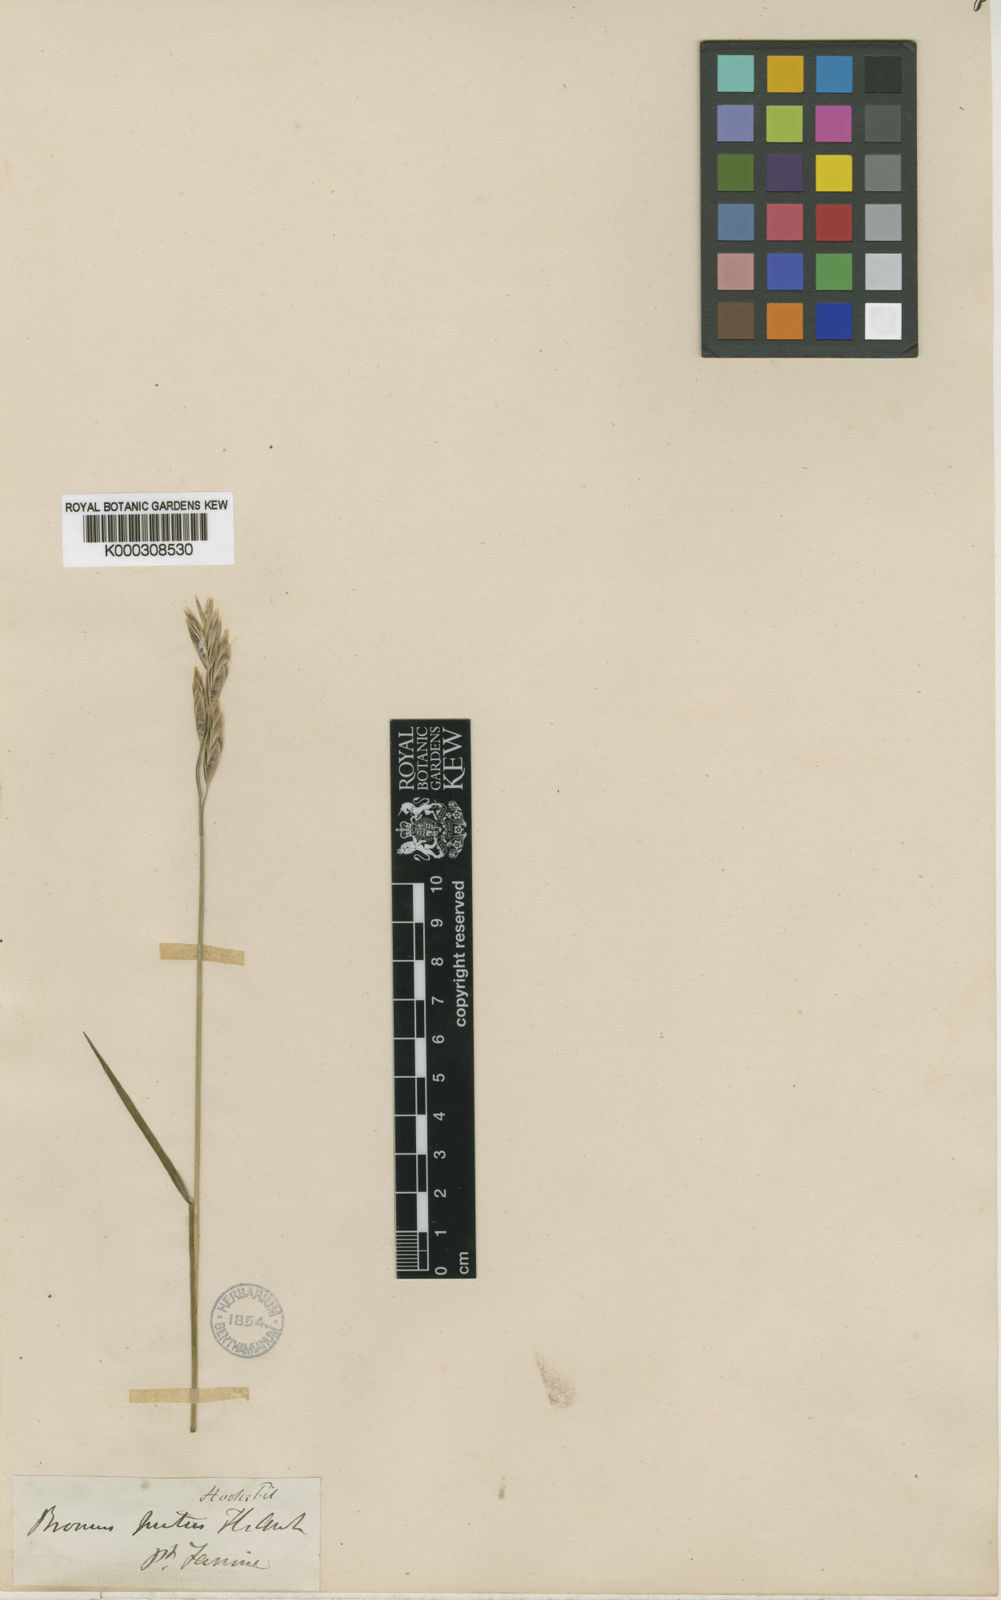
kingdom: Plantae
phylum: Tracheophyta
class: Liliopsida
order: Poales
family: Poaceae
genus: Bromus
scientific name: Bromus setifolius
